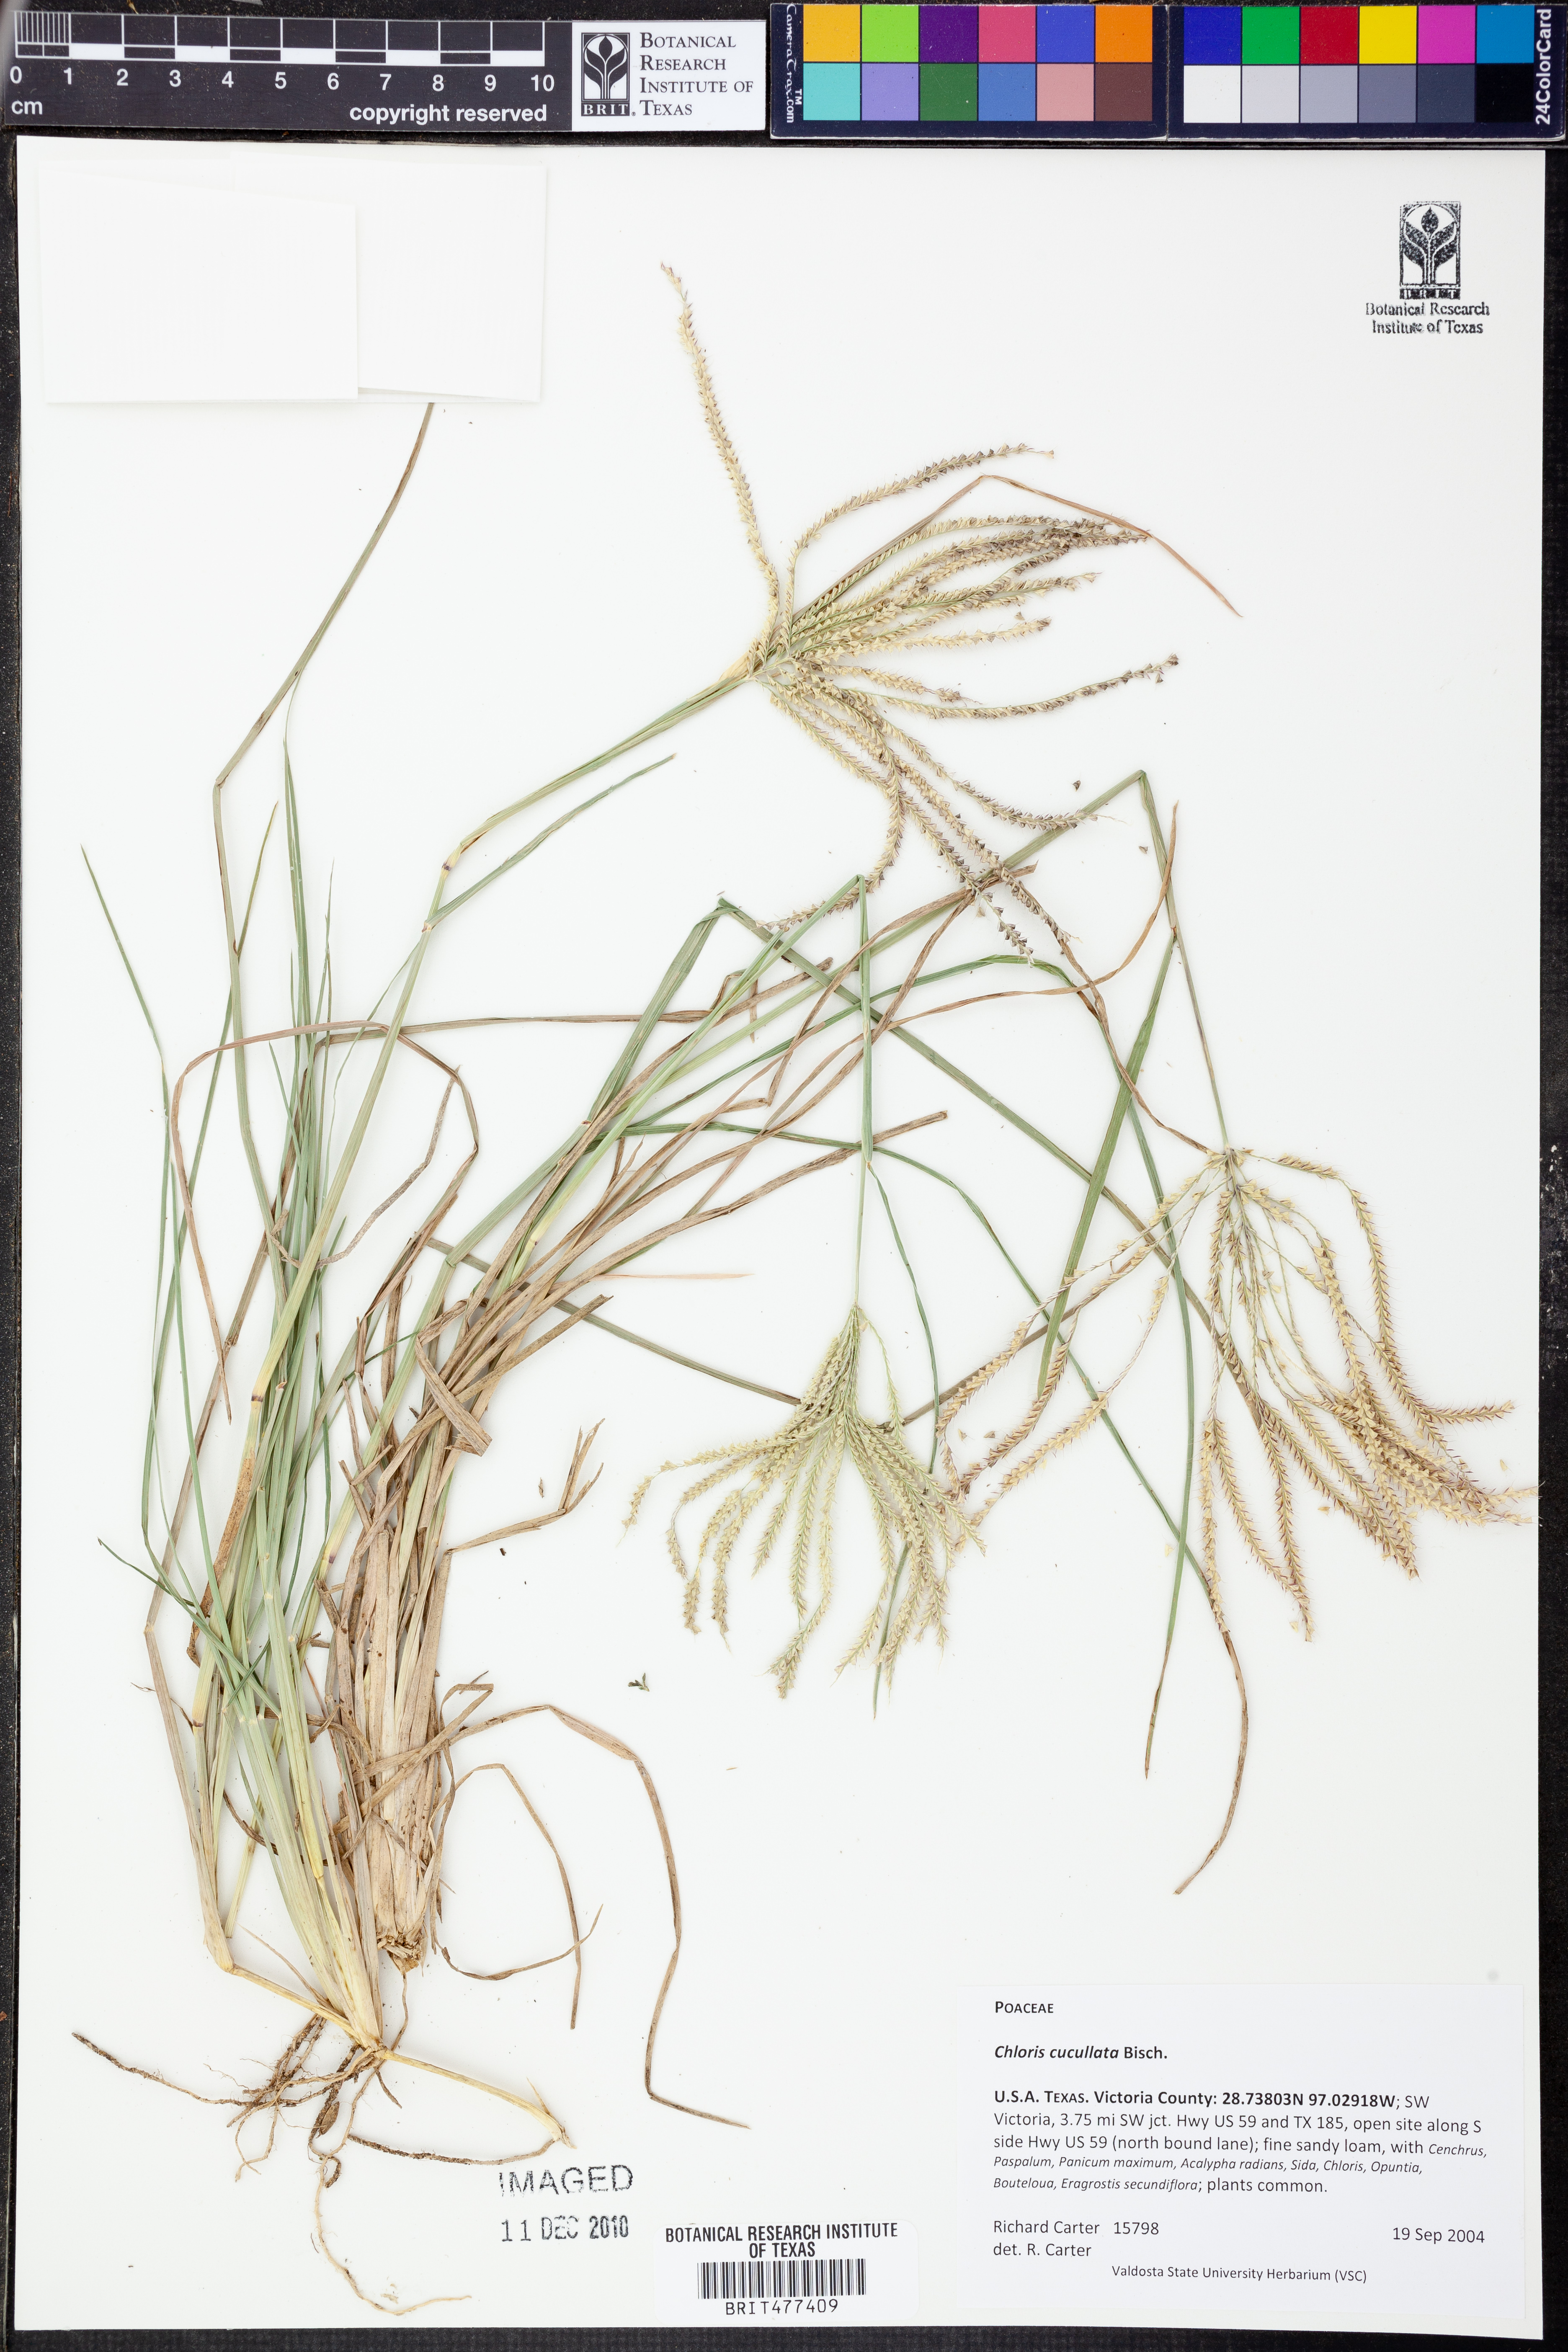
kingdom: Plantae
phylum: Tracheophyta
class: Liliopsida
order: Poales
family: Poaceae
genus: Chloris
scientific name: Chloris cucullata
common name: Hooded windmill grass
